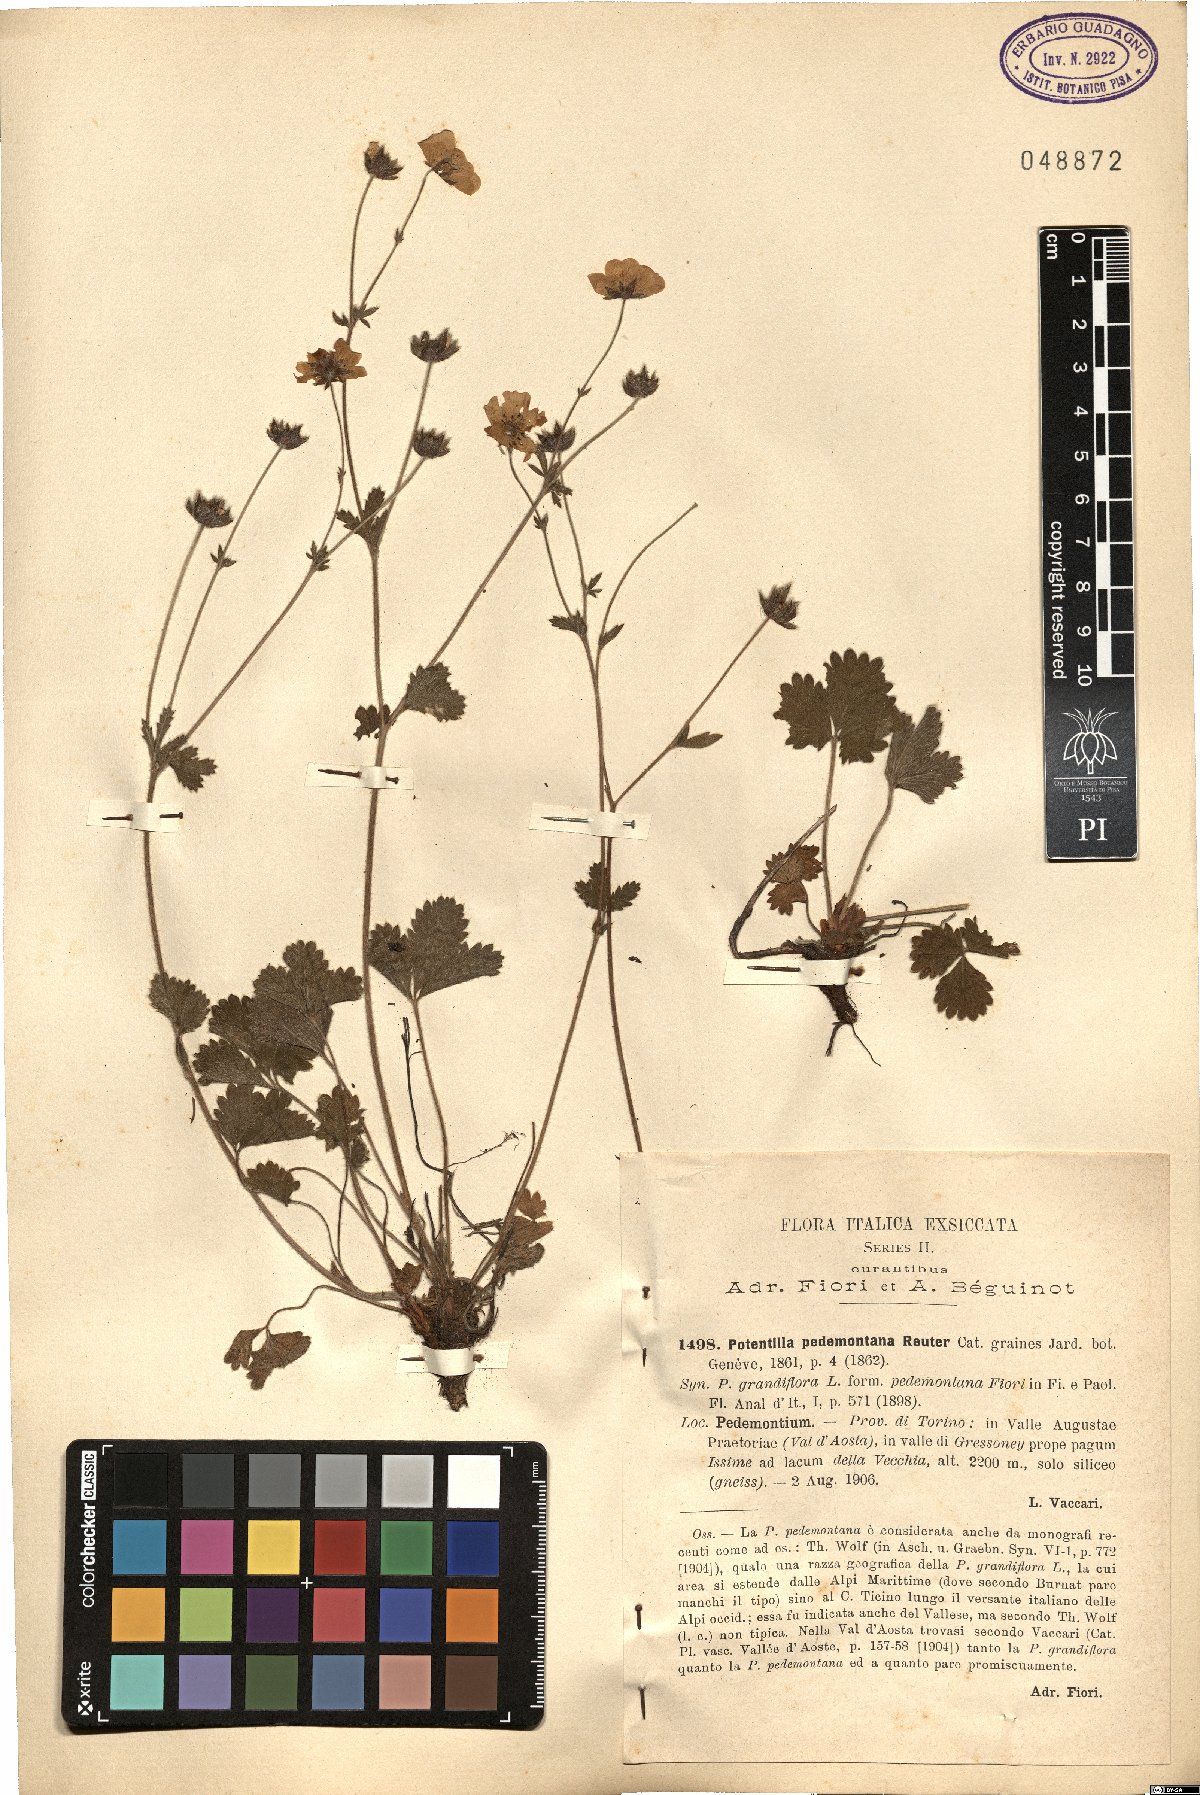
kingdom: Plantae
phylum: Tracheophyta
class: Magnoliopsida
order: Rosales
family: Rosaceae
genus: Potentilla
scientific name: Potentilla grandiflora
